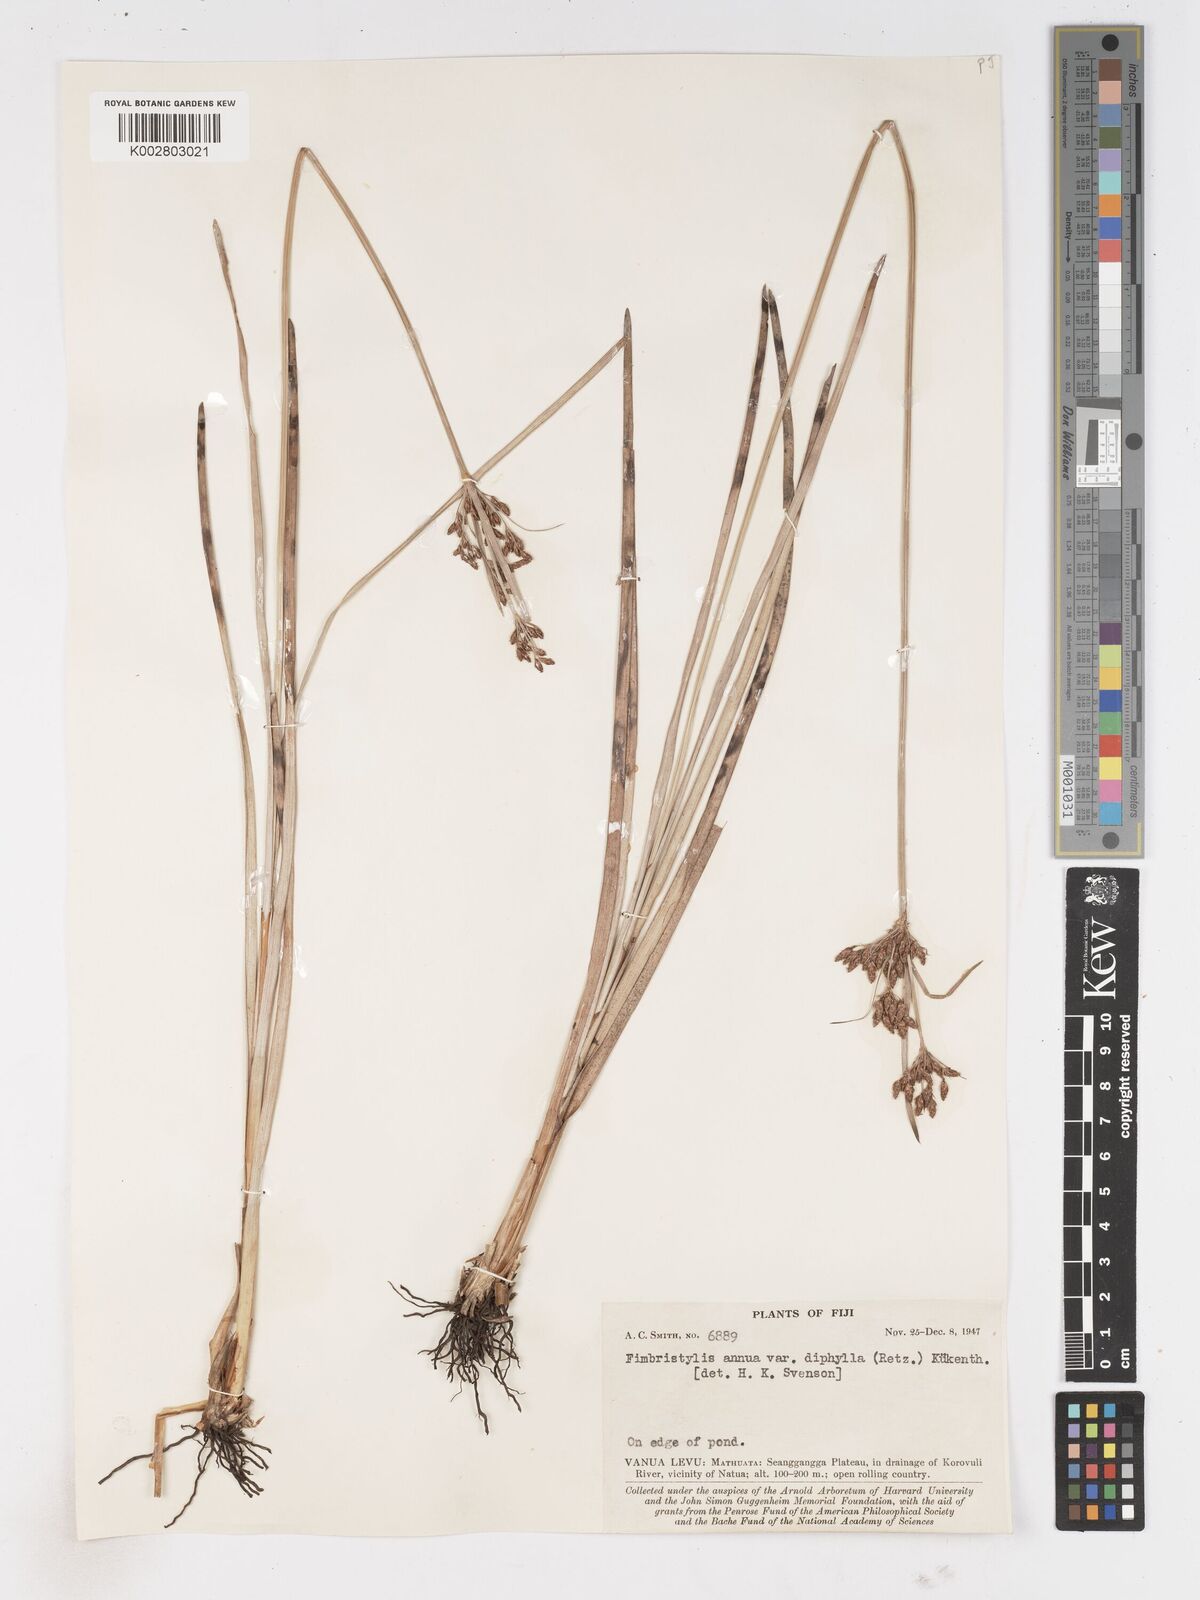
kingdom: Plantae
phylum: Tracheophyta
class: Liliopsida
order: Poales
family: Cyperaceae
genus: Fimbristylis
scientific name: Fimbristylis dichotoma
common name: Forked fimbry
